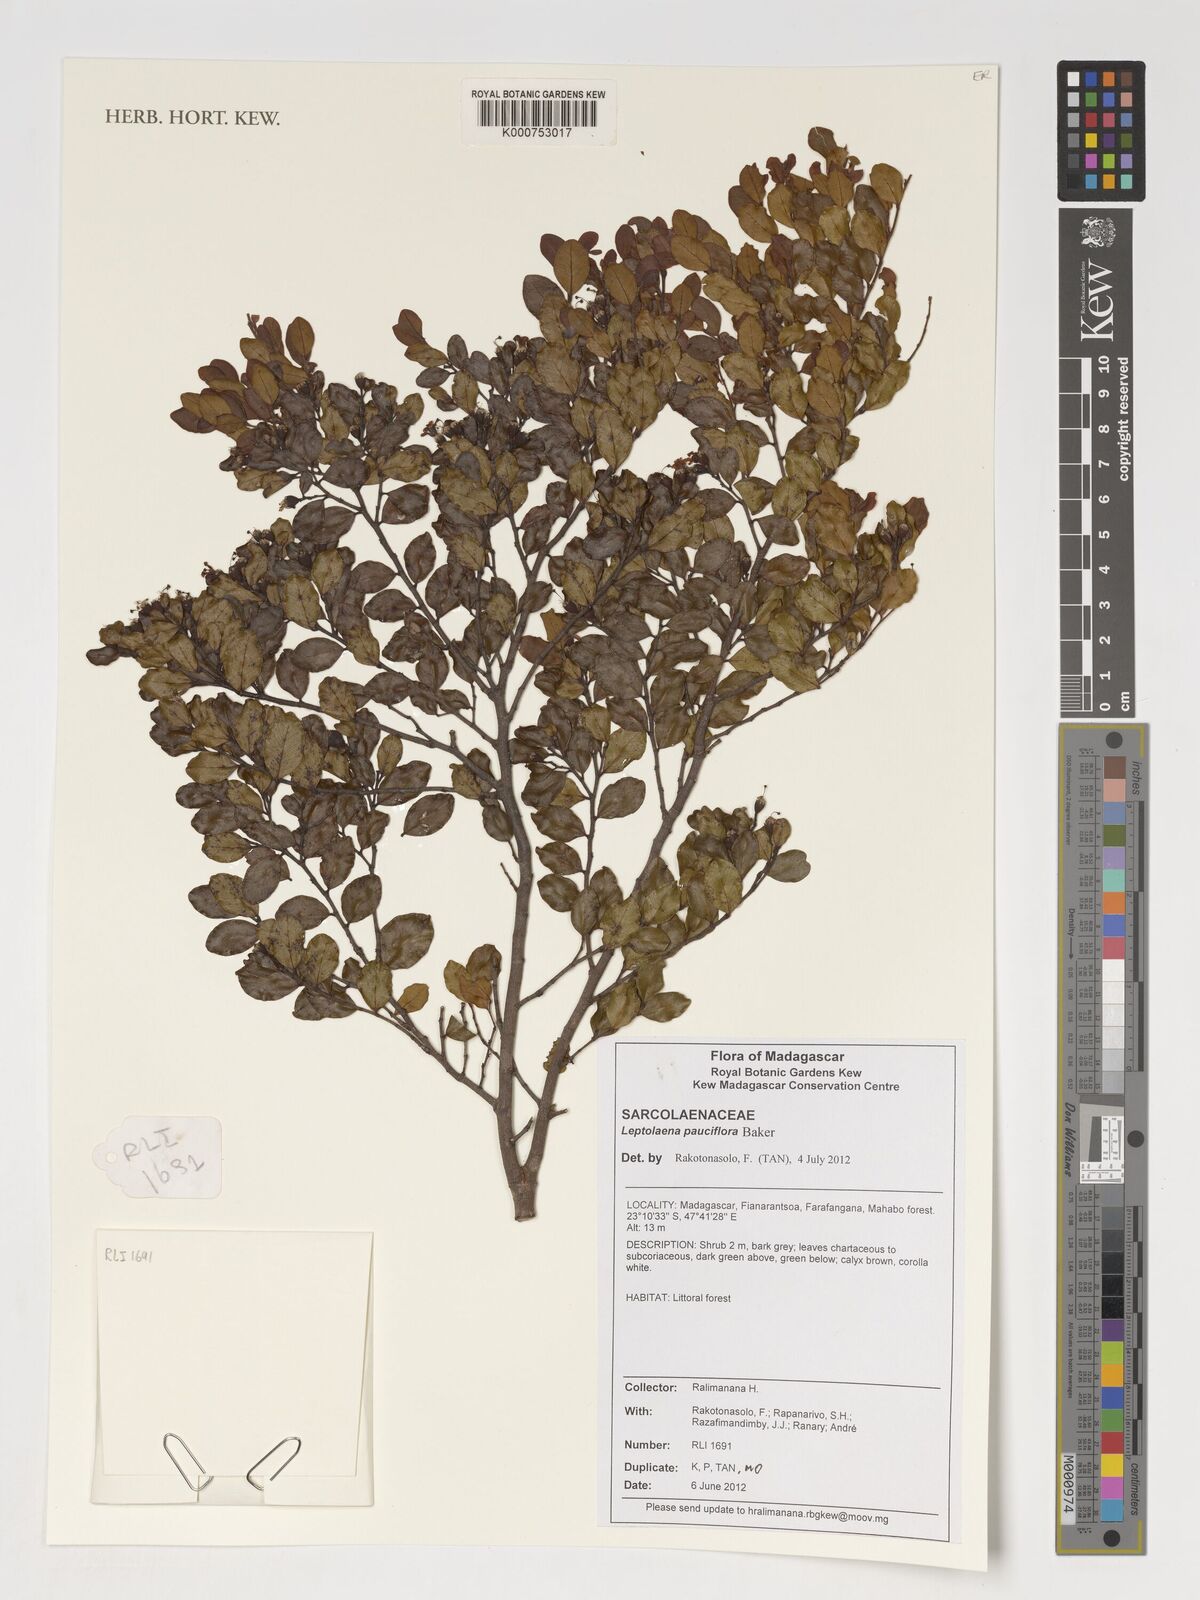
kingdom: Plantae
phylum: Tracheophyta
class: Magnoliopsida
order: Malvales
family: Sarcolaenaceae
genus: Leptolaena
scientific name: Leptolaena pauciflora
